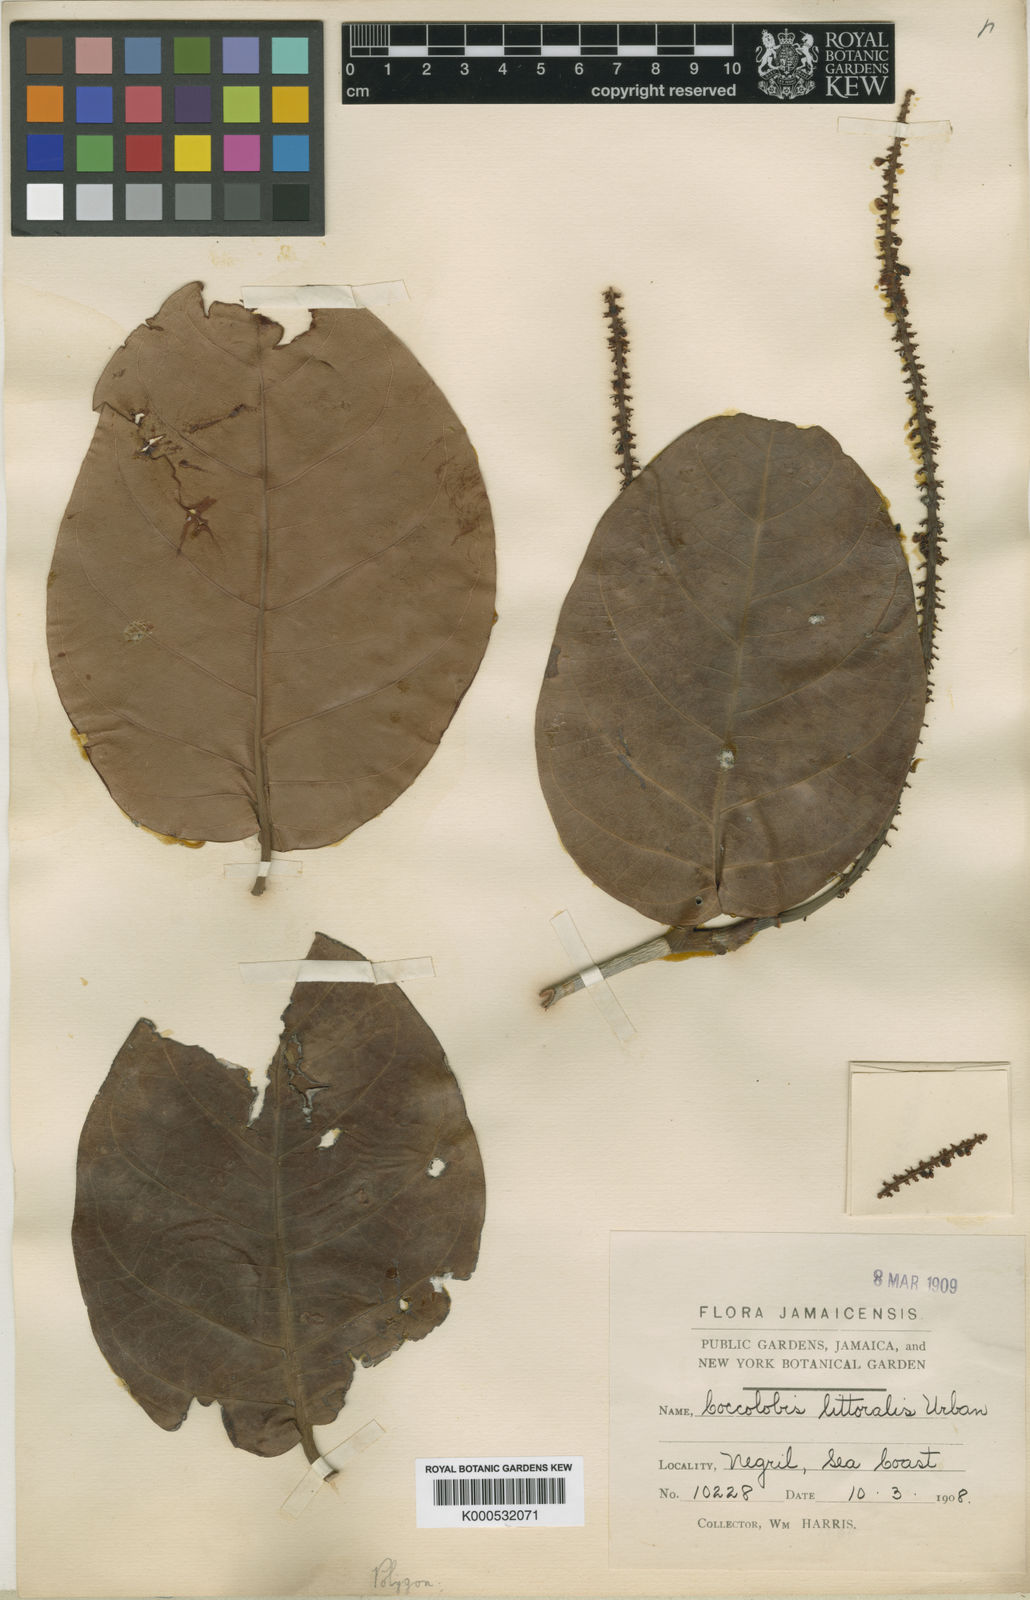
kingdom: Plantae
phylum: Tracheophyta
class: Magnoliopsida
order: Caryophyllales
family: Polygonaceae
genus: Coccoloba
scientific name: Coccoloba jamaicensis
